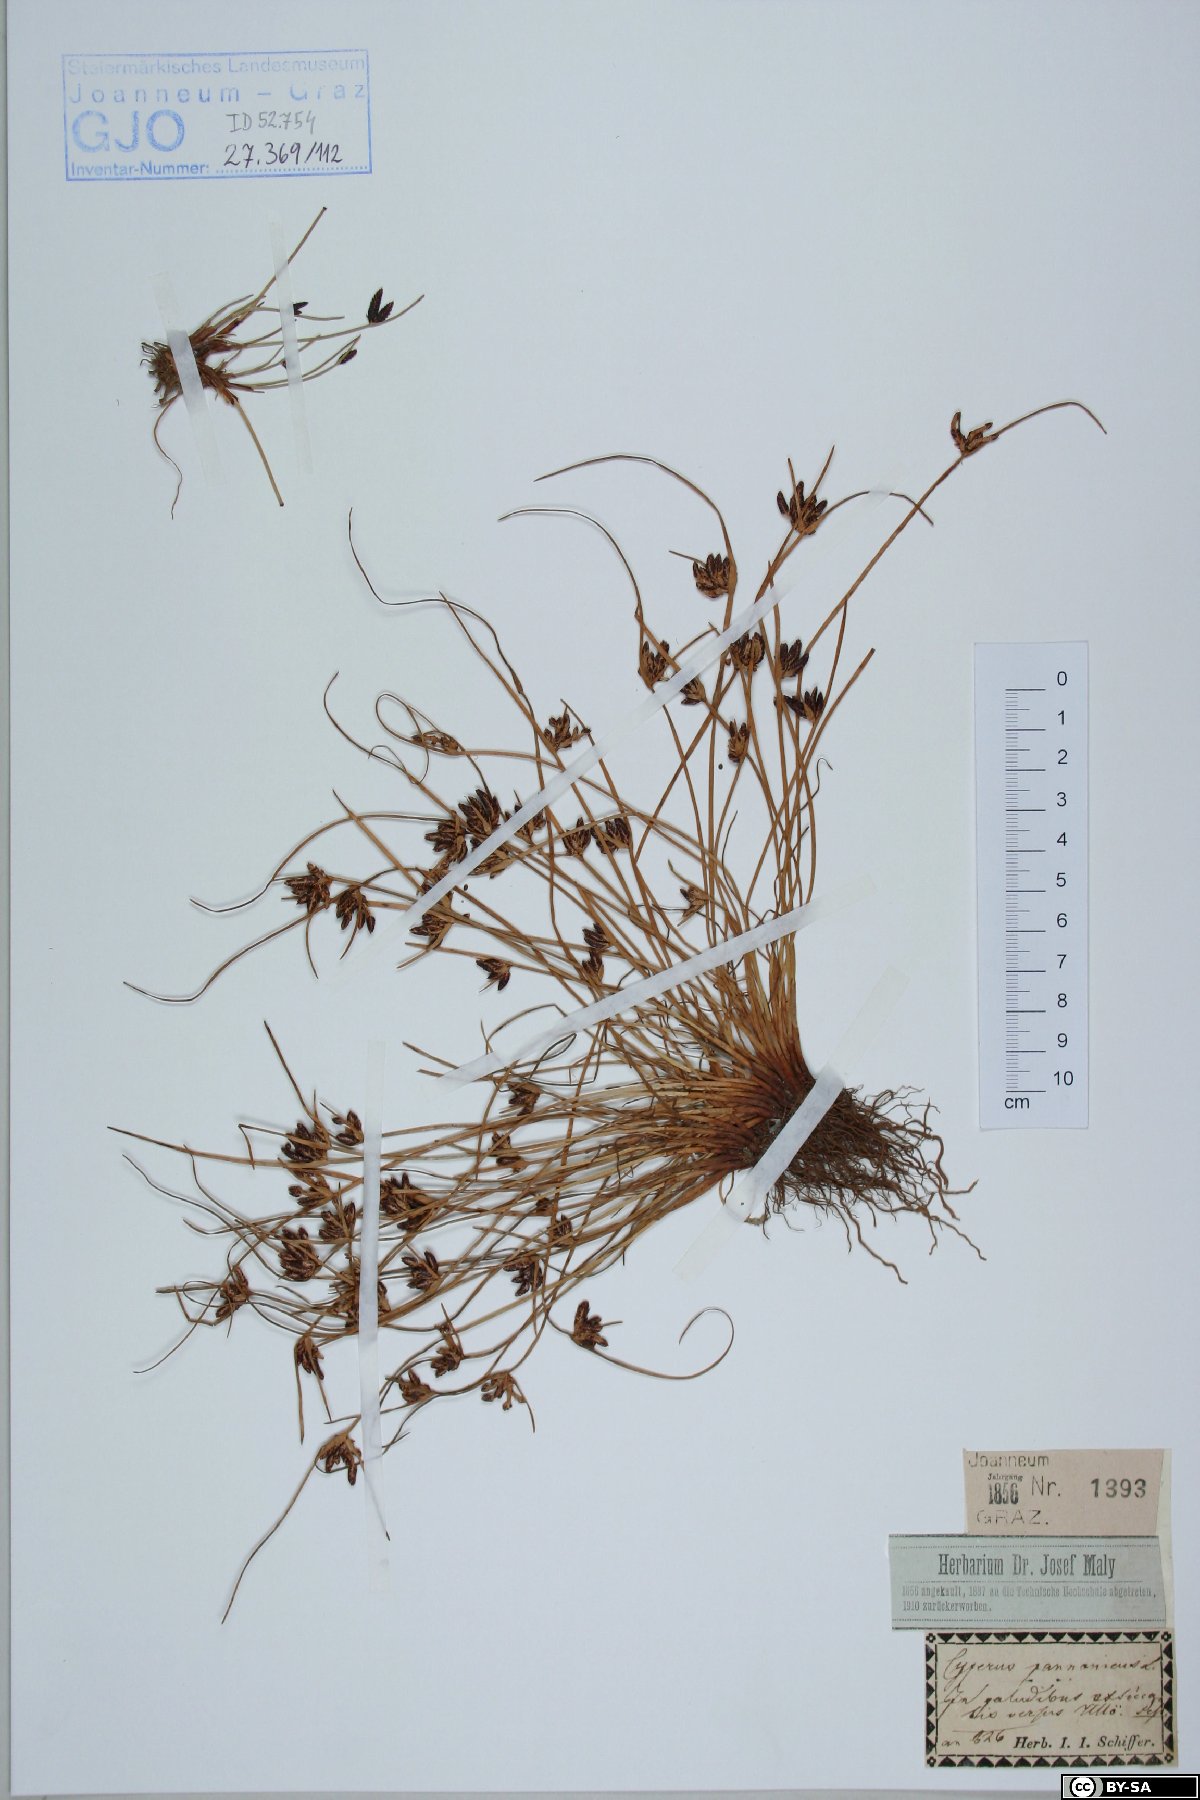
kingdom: Plantae
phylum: Tracheophyta
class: Liliopsida
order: Poales
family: Cyperaceae
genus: Cyperus
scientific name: Cyperus pannonicus
